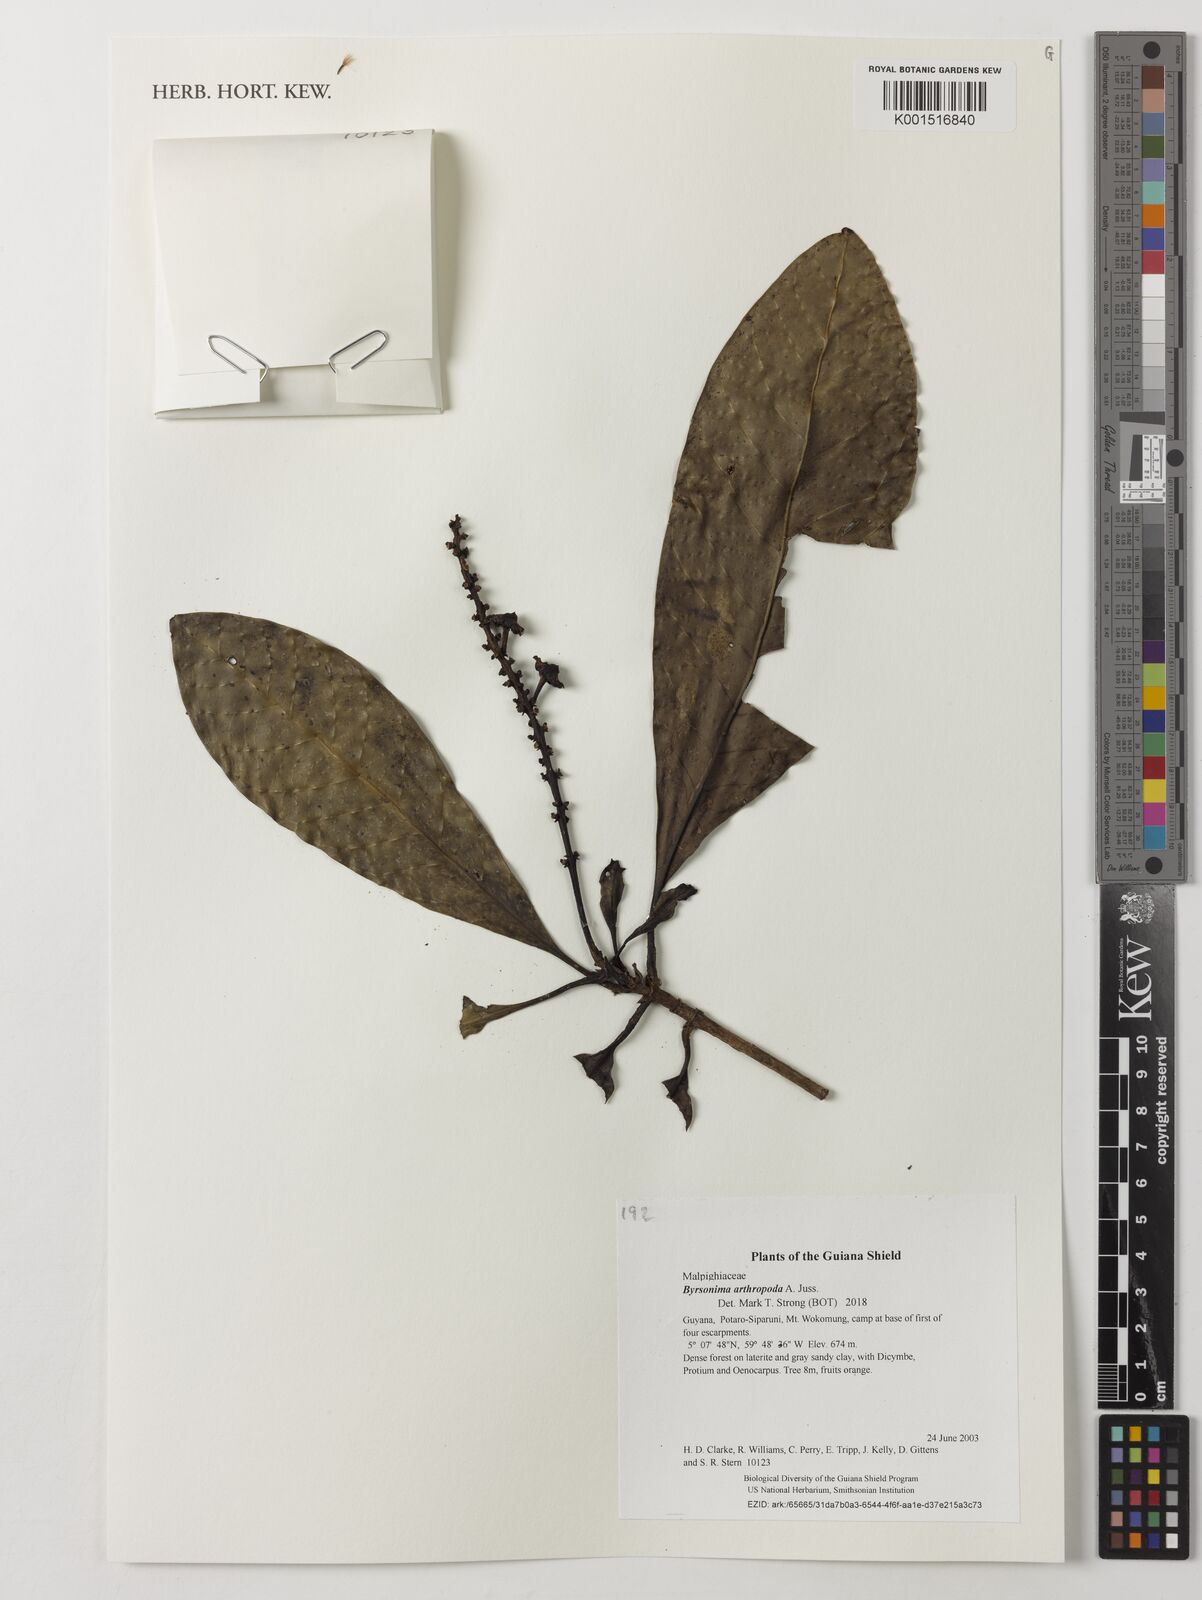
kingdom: Plantae
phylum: Tracheophyta
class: Magnoliopsida
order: Malpighiales
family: Malpighiaceae
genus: Byrsonima
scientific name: Byrsonima arthropoda
